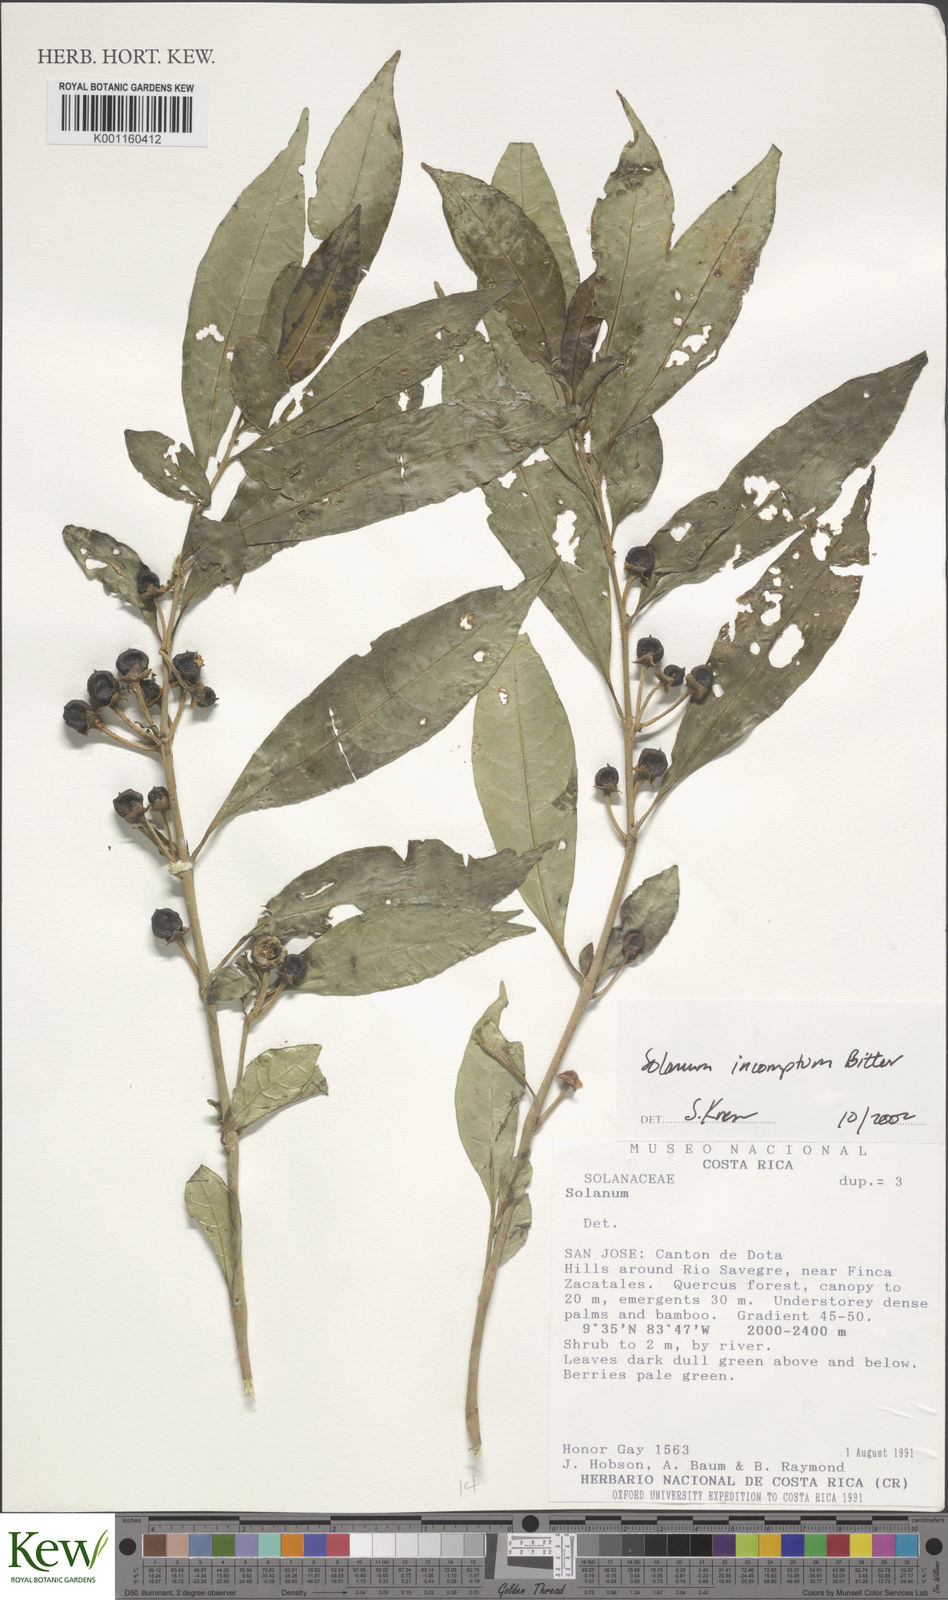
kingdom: Plantae
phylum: Tracheophyta
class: Magnoliopsida
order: Solanales
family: Solanaceae
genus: Solanum
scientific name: Solanum incomptum
